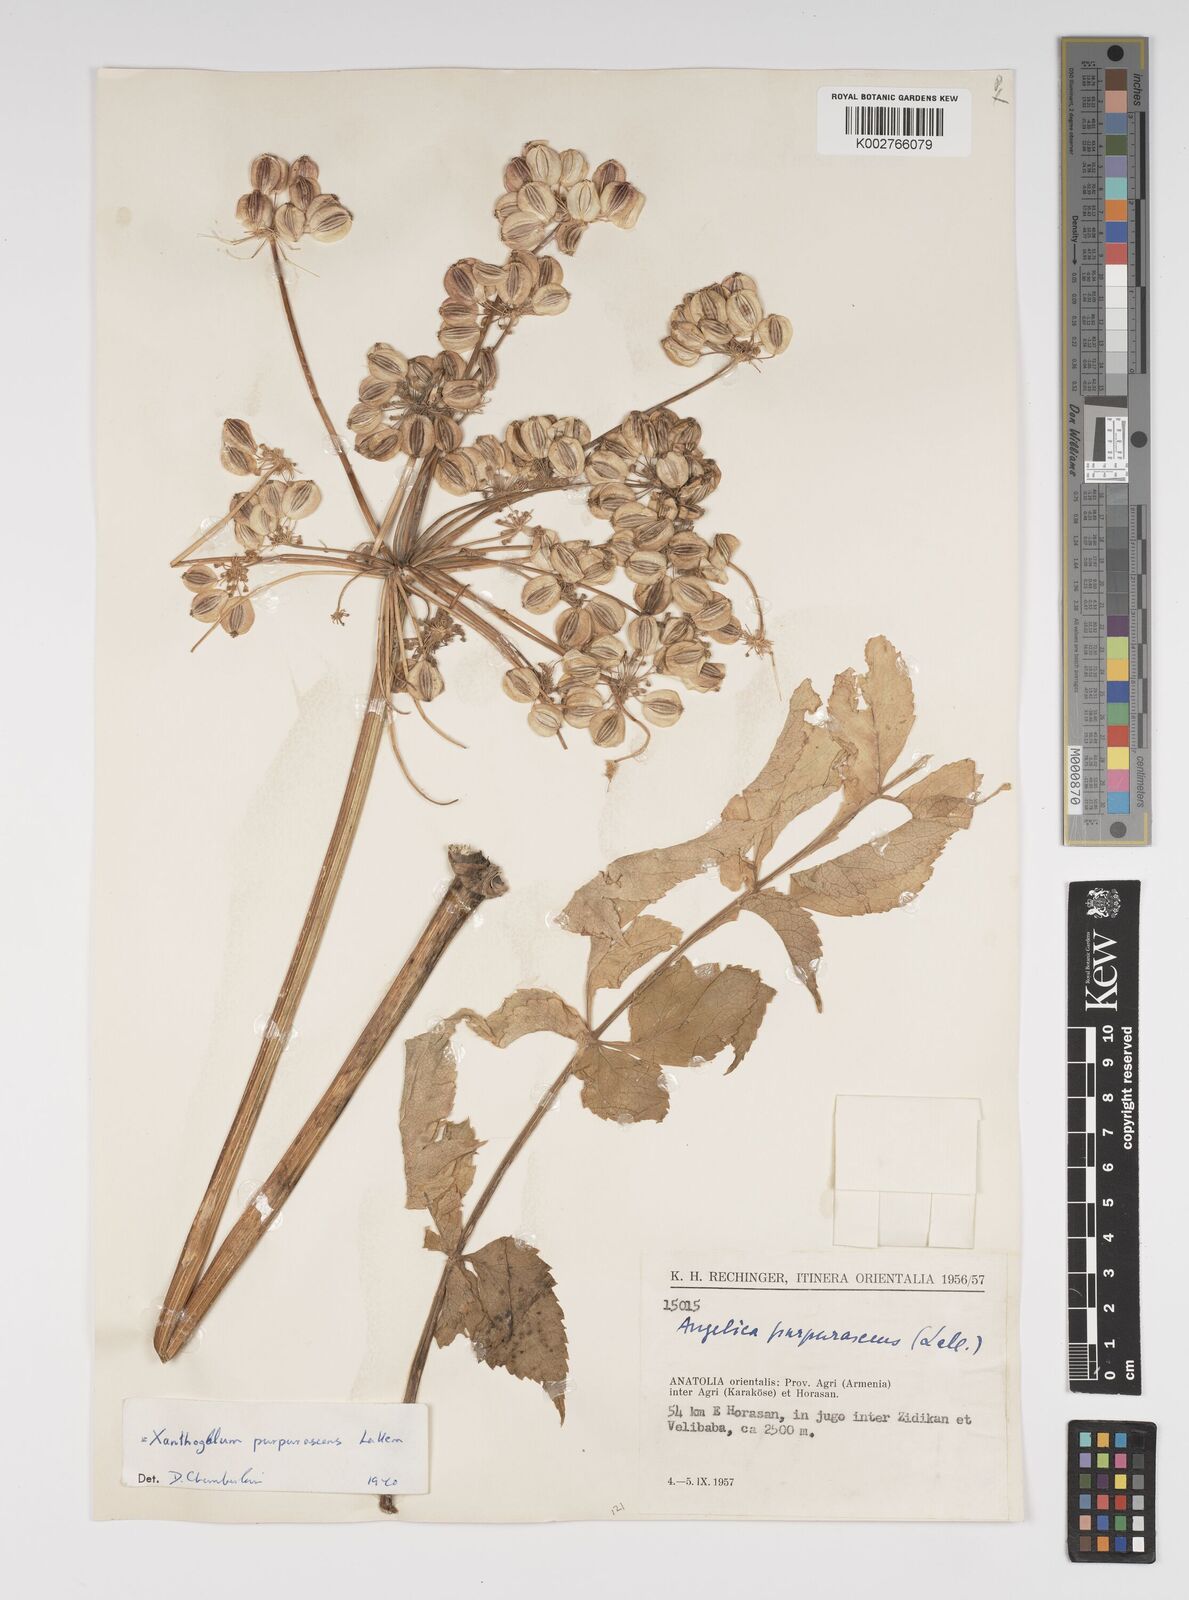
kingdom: Plantae
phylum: Tracheophyta
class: Magnoliopsida
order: Apiales
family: Apiaceae
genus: Xanthogalum
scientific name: Xanthogalum purpurascens
